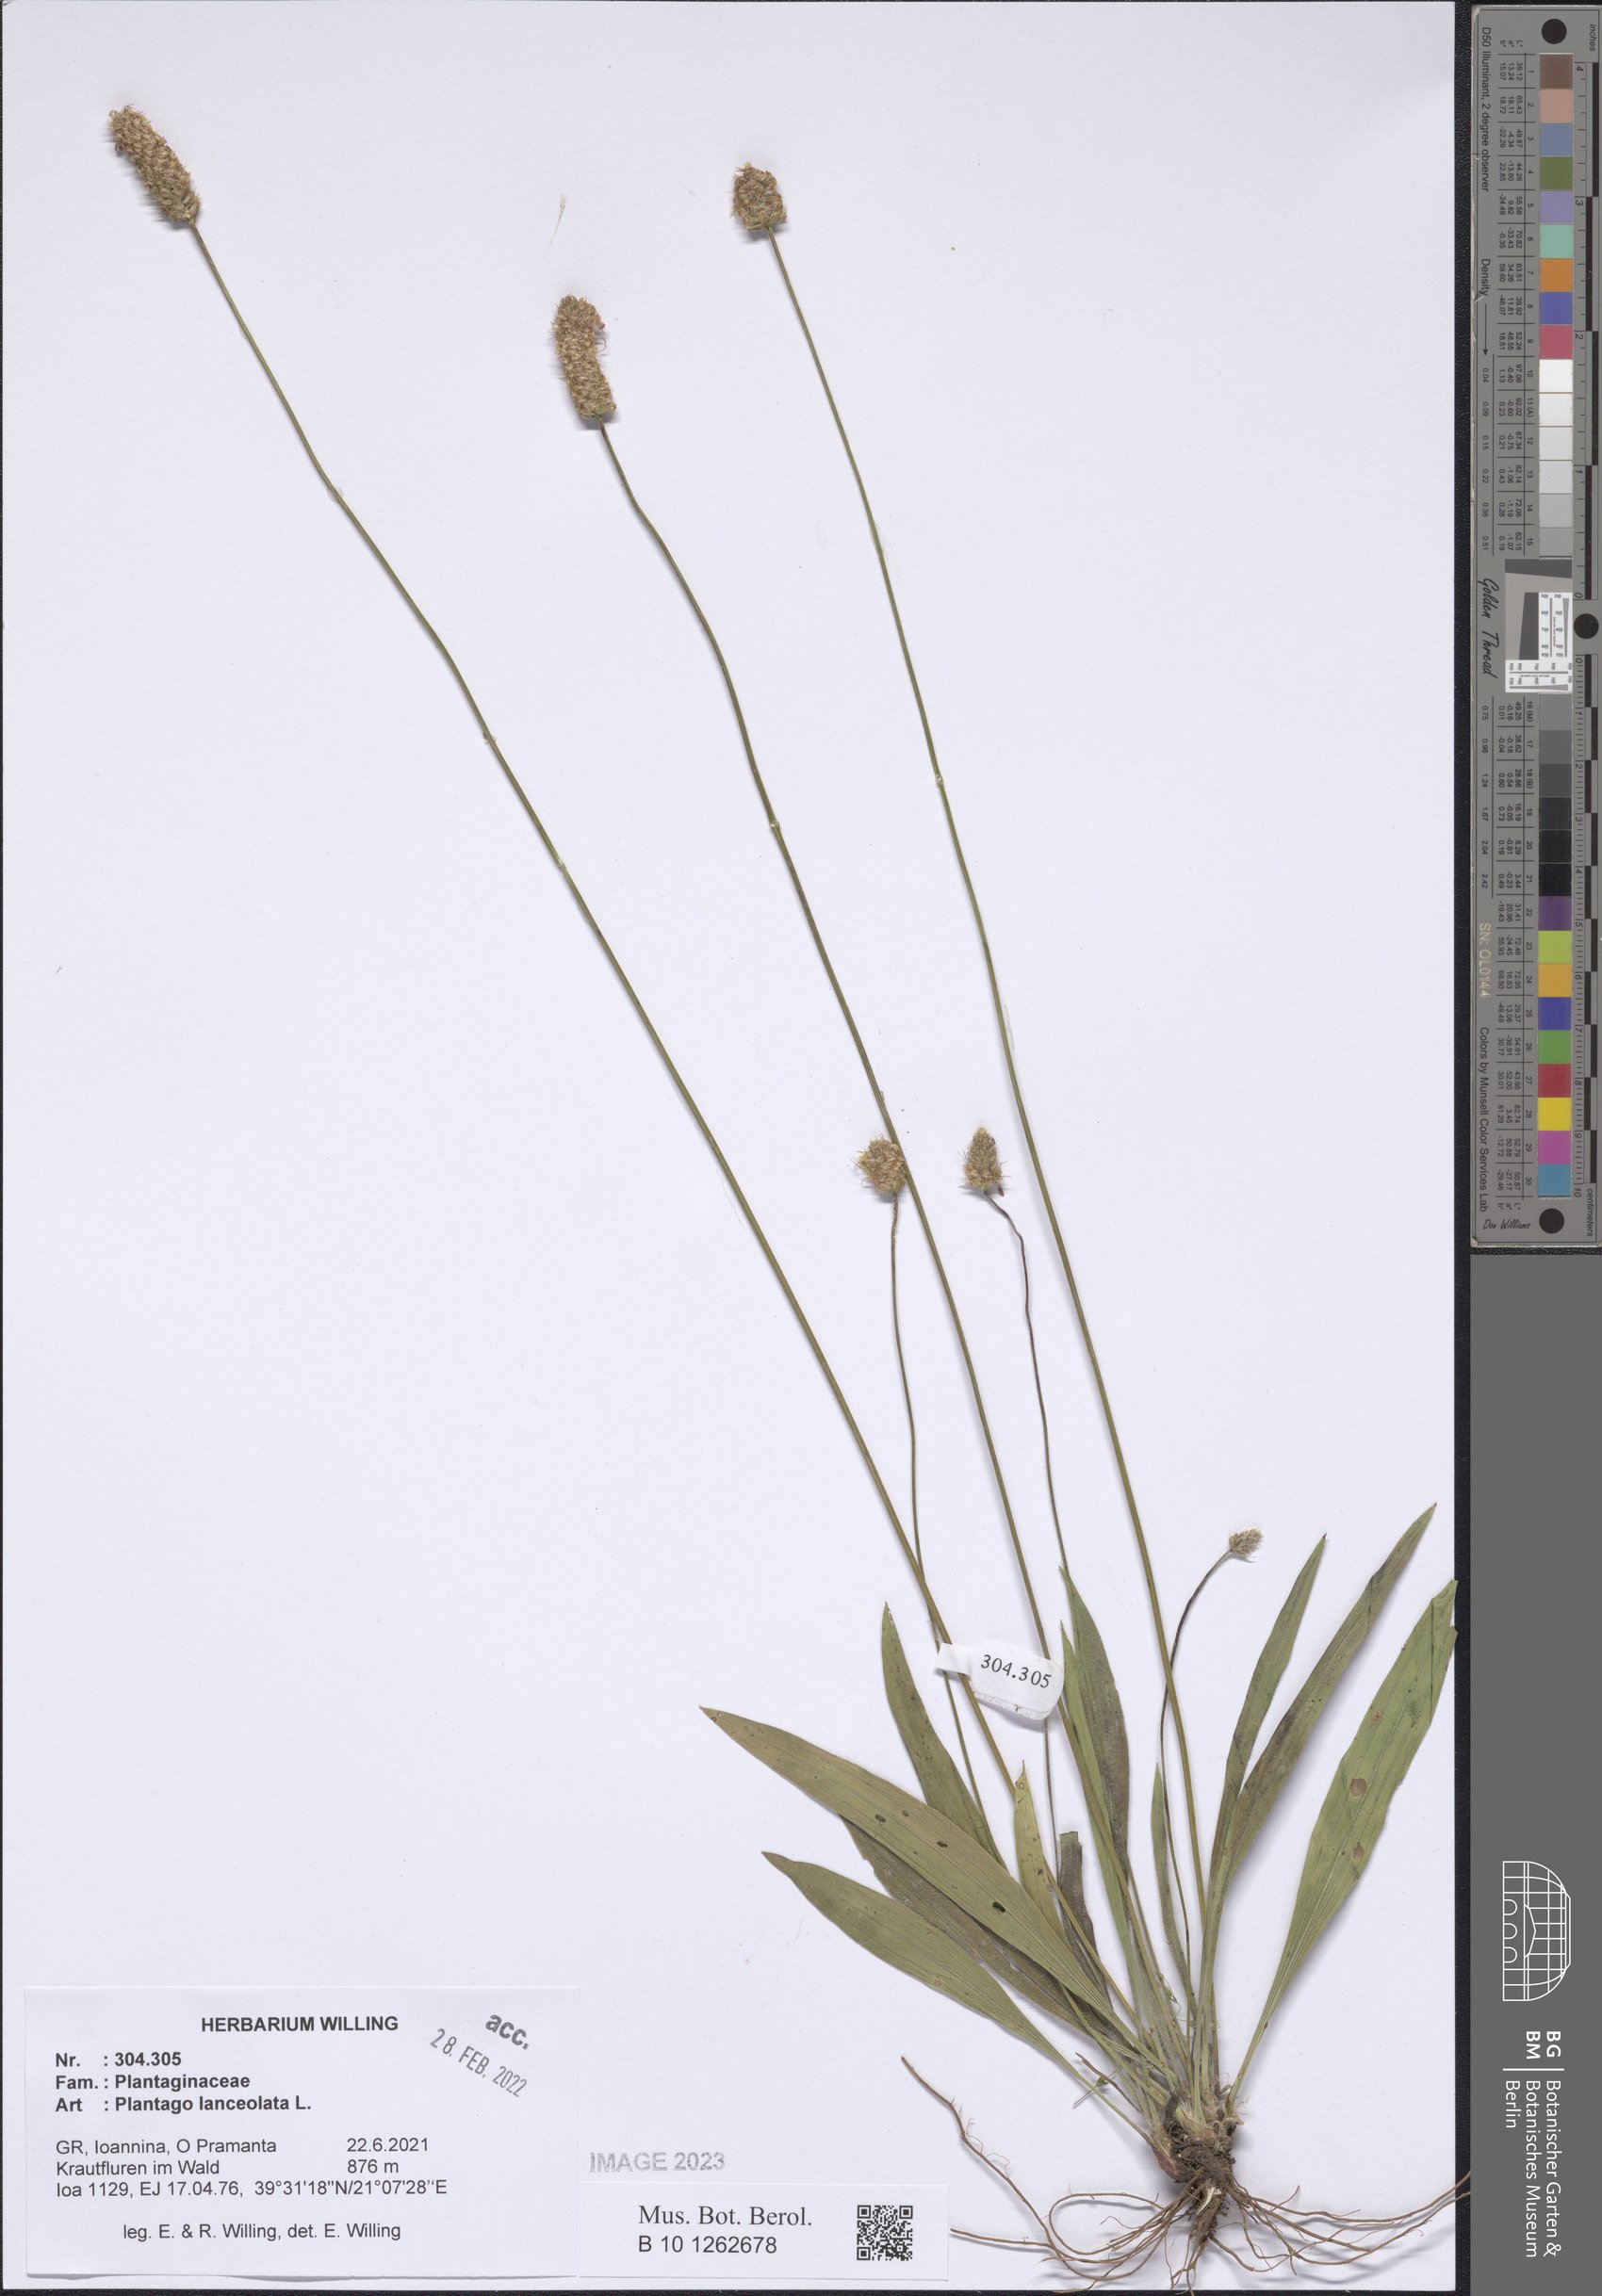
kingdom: Plantae
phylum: Tracheophyta
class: Magnoliopsida
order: Lamiales
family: Plantaginaceae
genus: Plantago
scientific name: Plantago lanceolata
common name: Ribwort plantain
